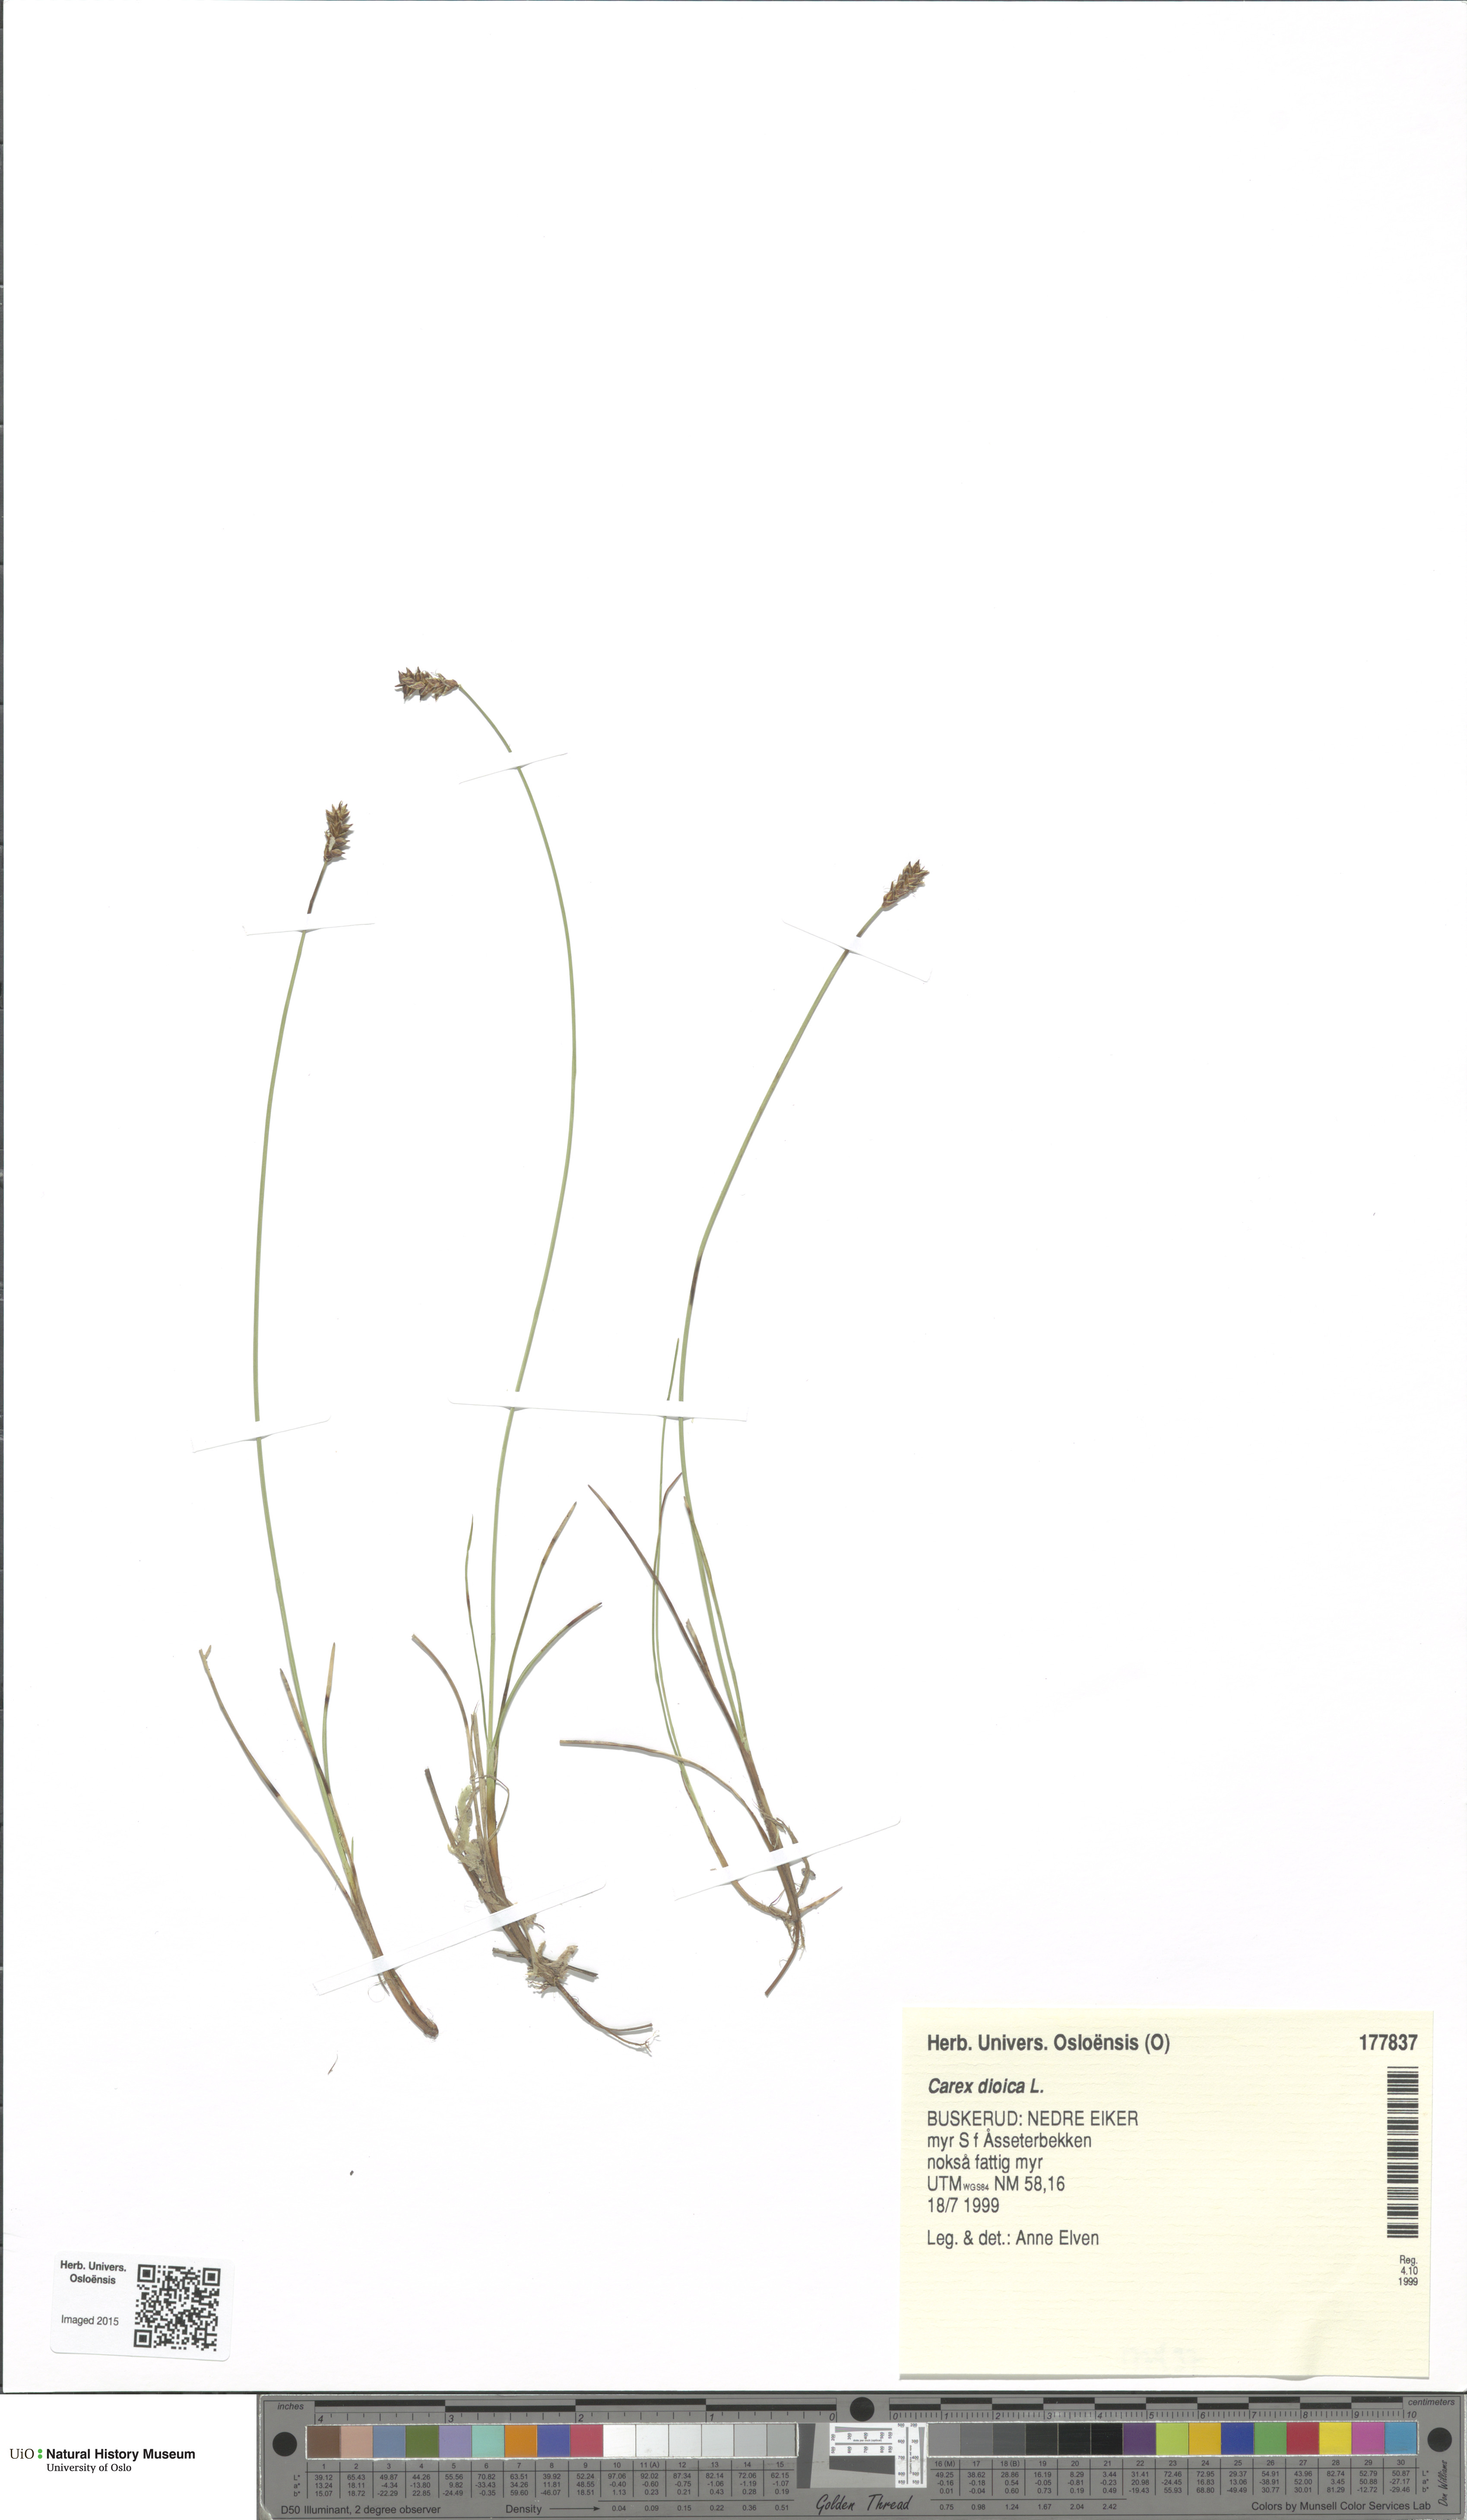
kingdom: Plantae
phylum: Tracheophyta
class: Liliopsida
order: Poales
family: Cyperaceae
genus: Carex
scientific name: Carex dioica
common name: Dioecious sedge
